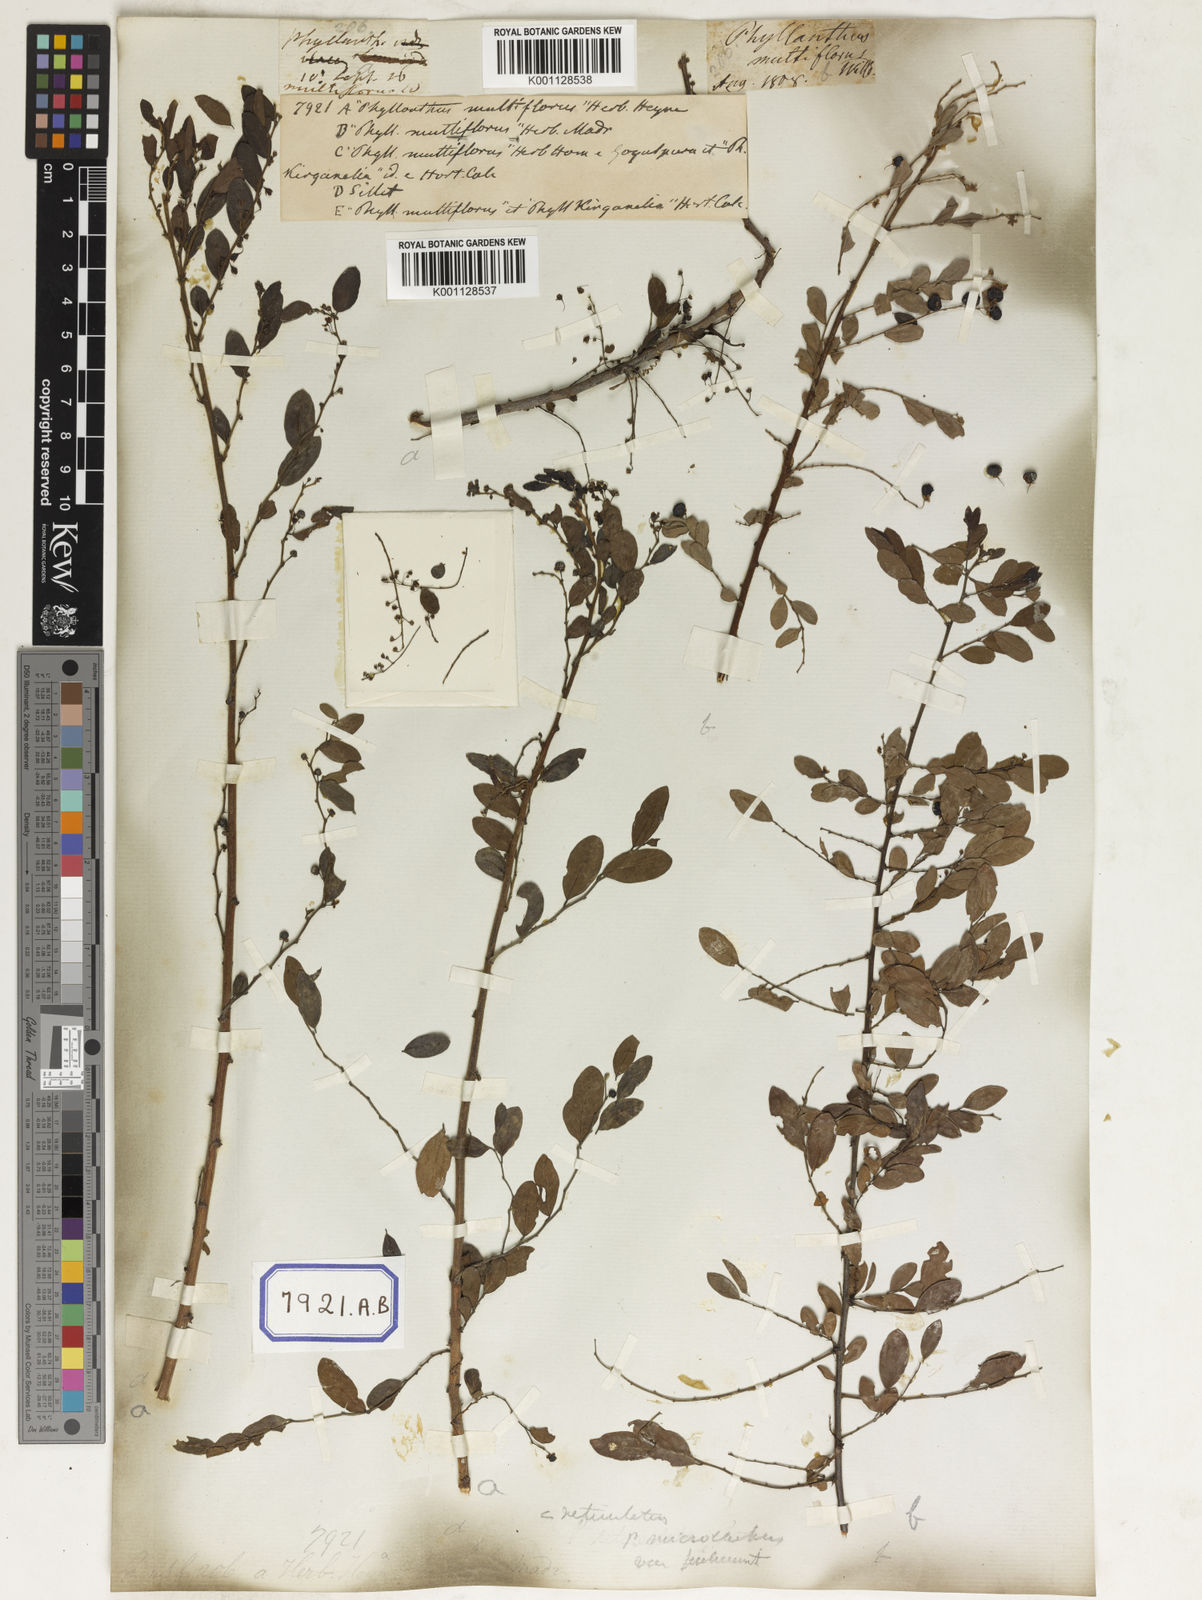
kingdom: Plantae
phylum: Tracheophyta
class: Magnoliopsida
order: Malpighiales
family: Euphorbiaceae
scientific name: Euphorbiaceae
